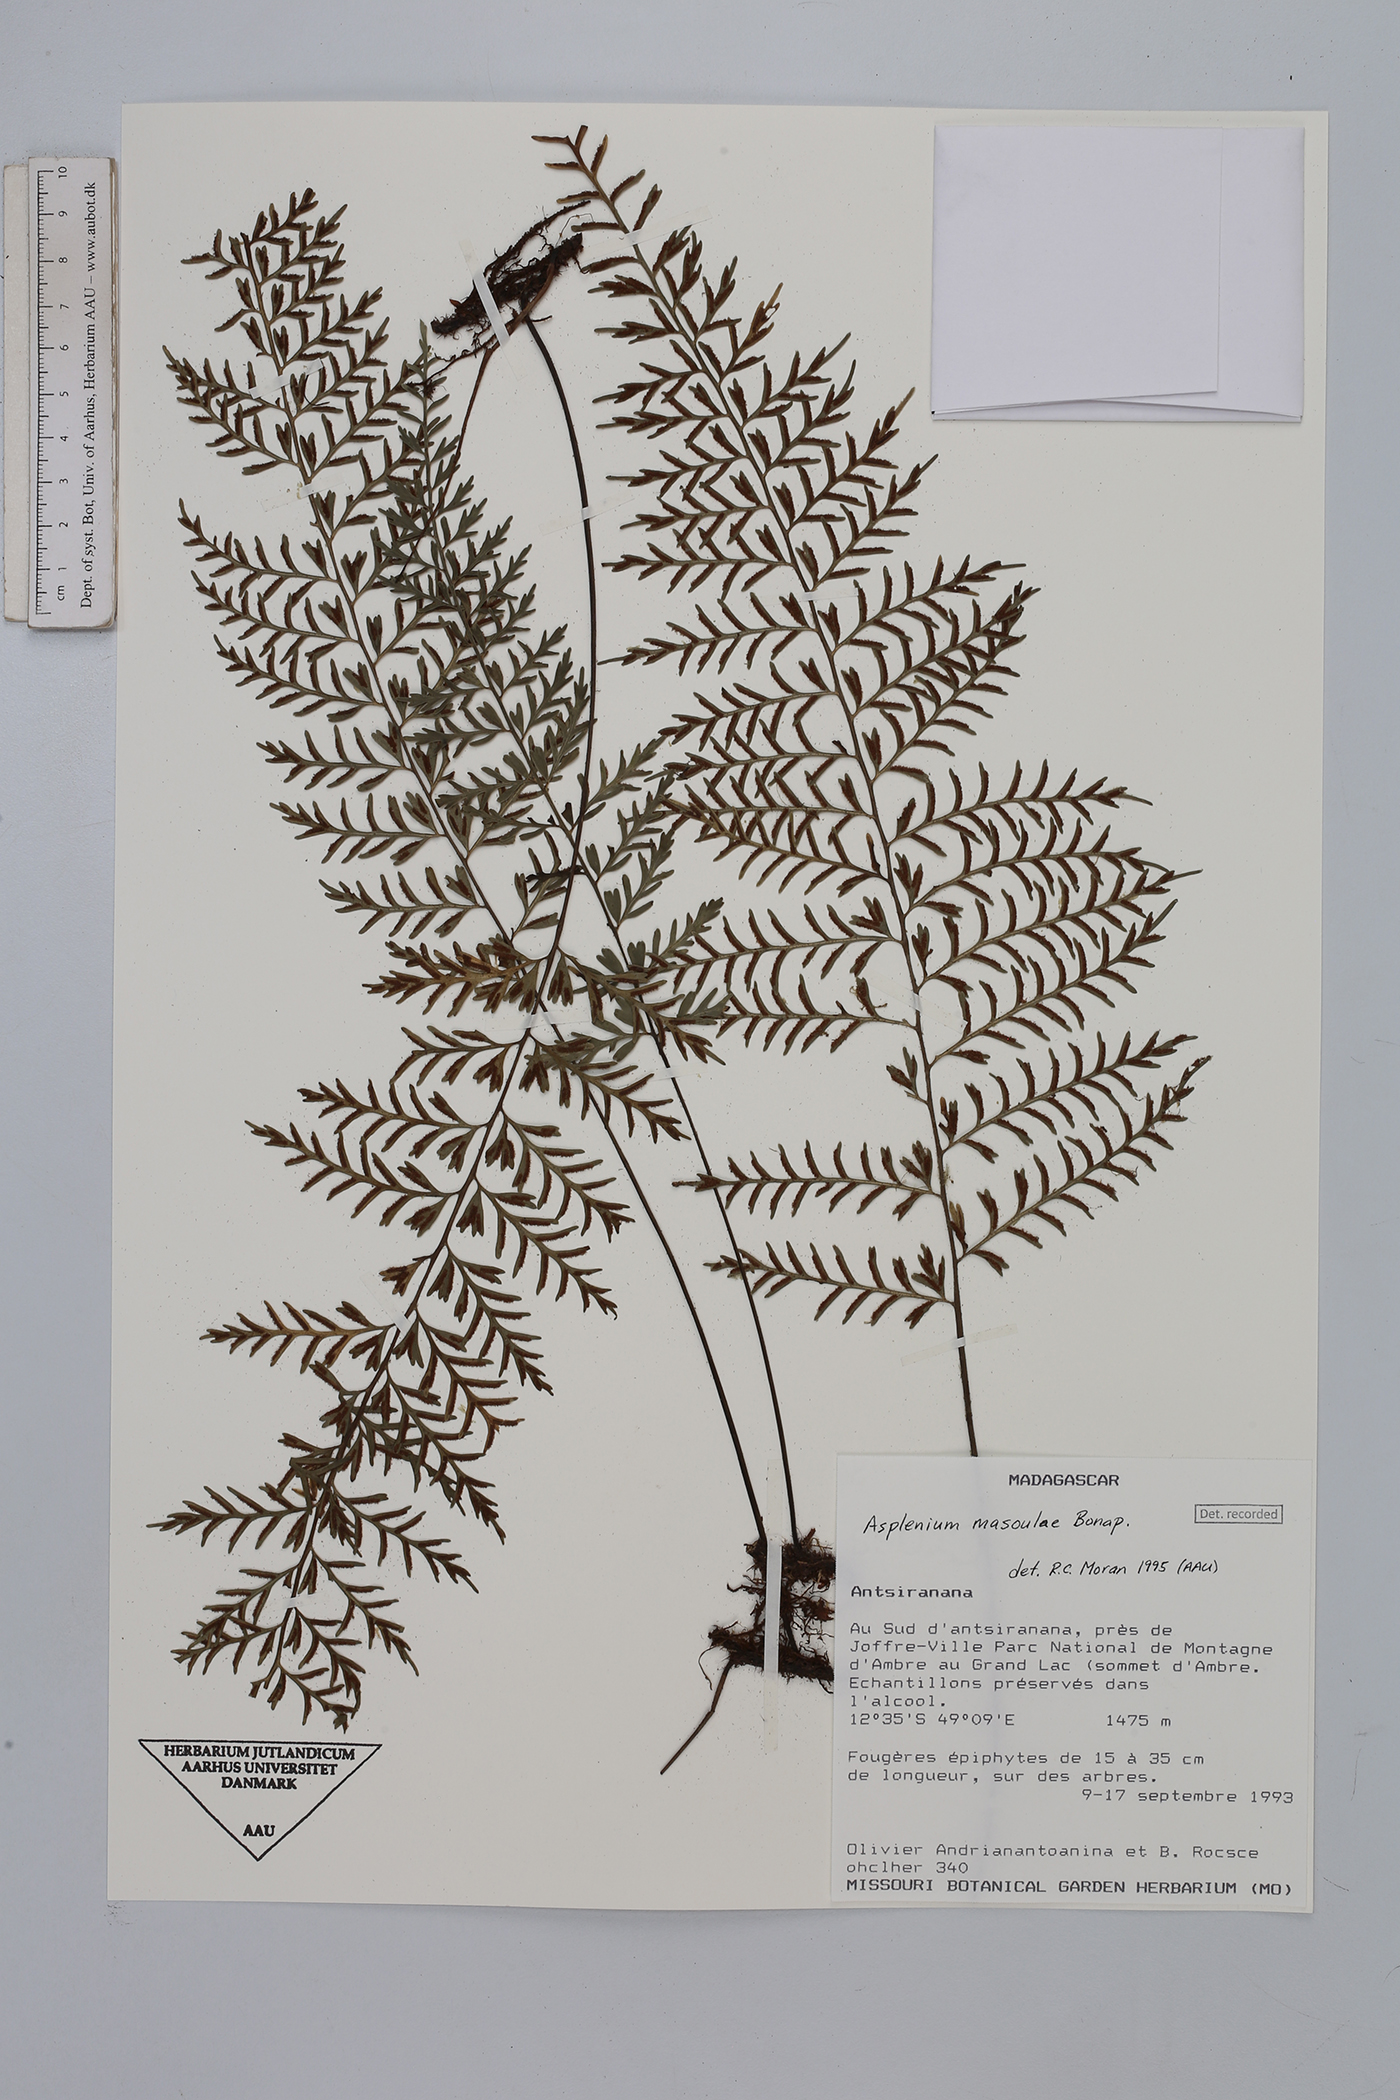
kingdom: Plantae
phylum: Tracheophyta
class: Polypodiopsida
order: Polypodiales
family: Aspleniaceae
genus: Asplenium
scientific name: Asplenium herpetopteris
